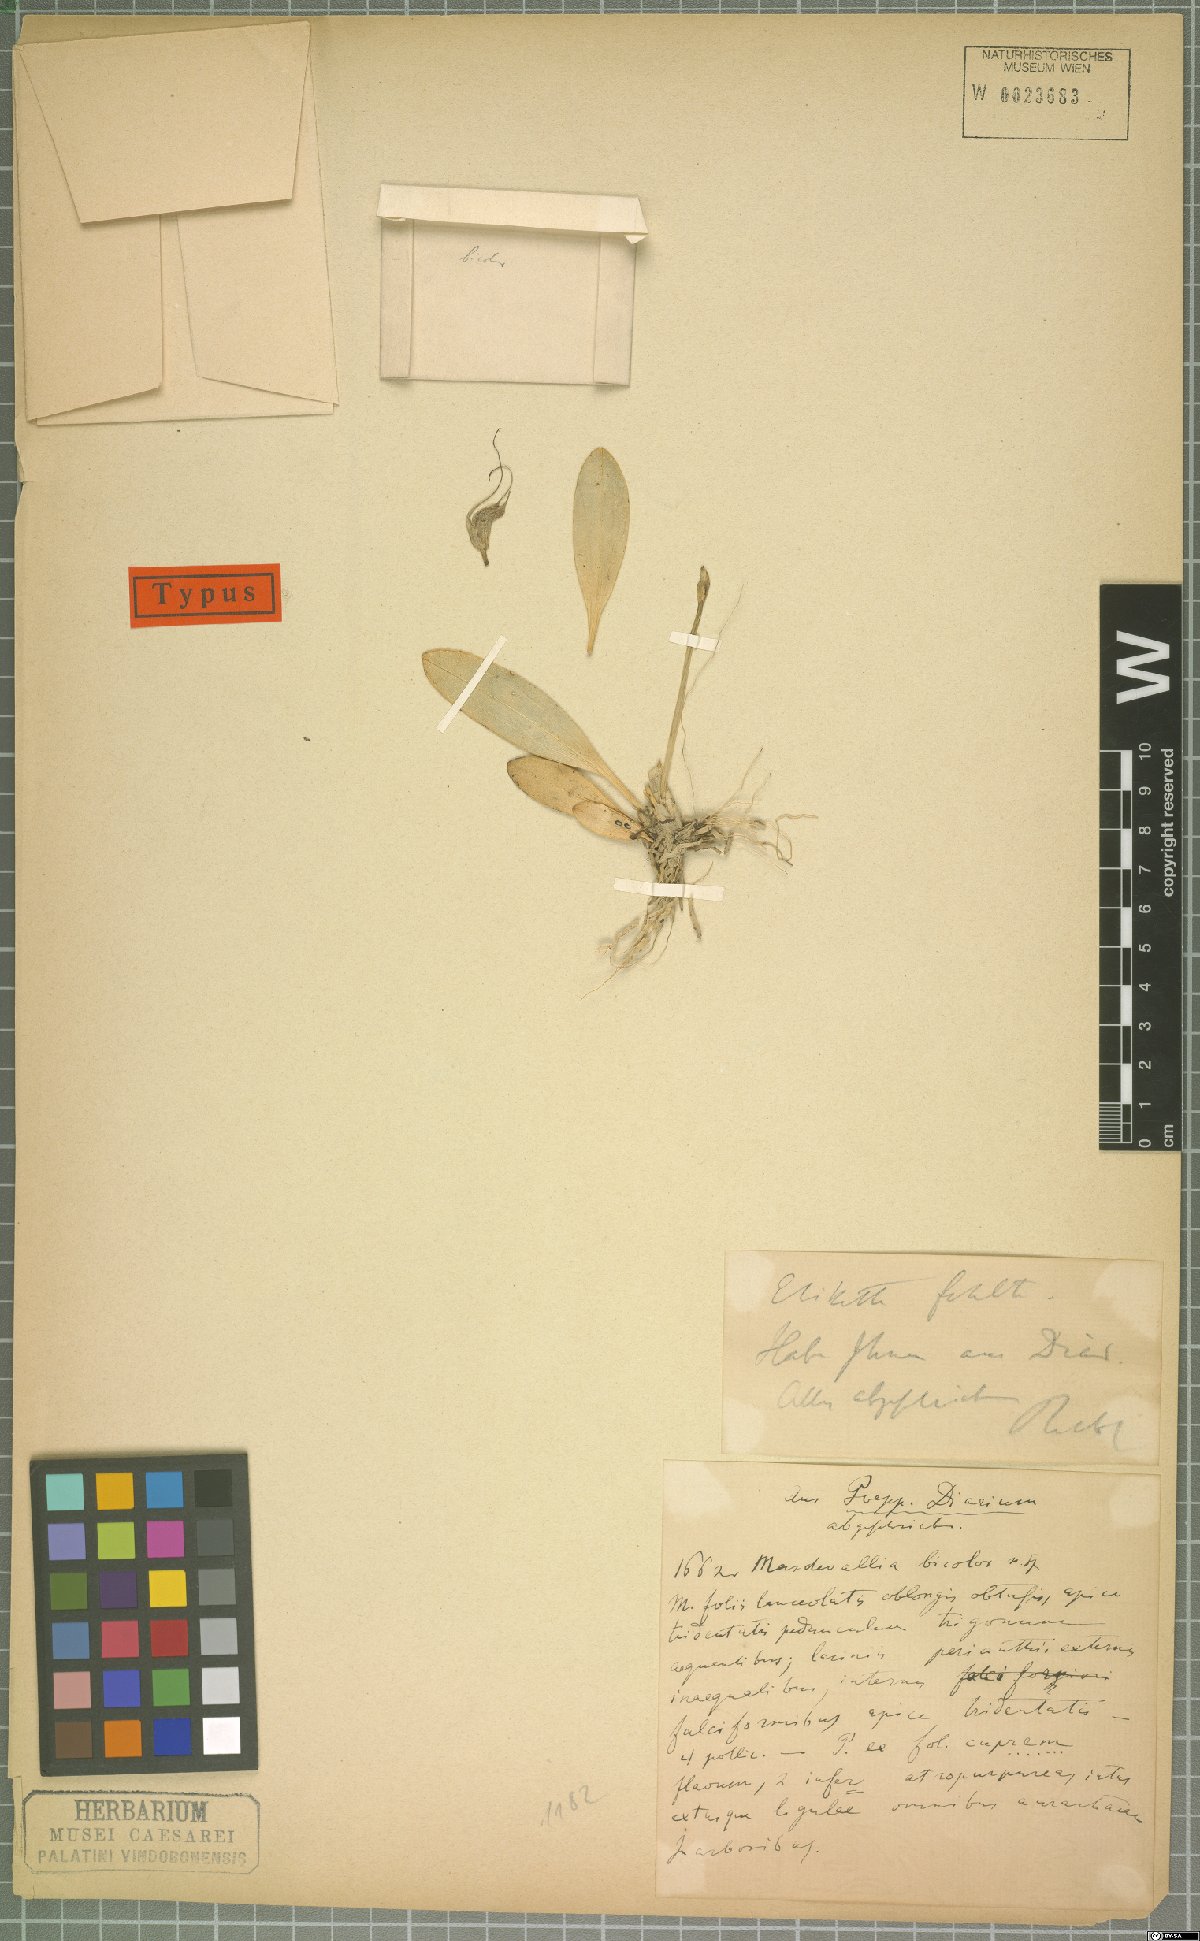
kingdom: Plantae
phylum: Tracheophyta
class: Liliopsida
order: Asparagales
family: Orchidaceae
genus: Masdevallia
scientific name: Masdevallia bicolor
